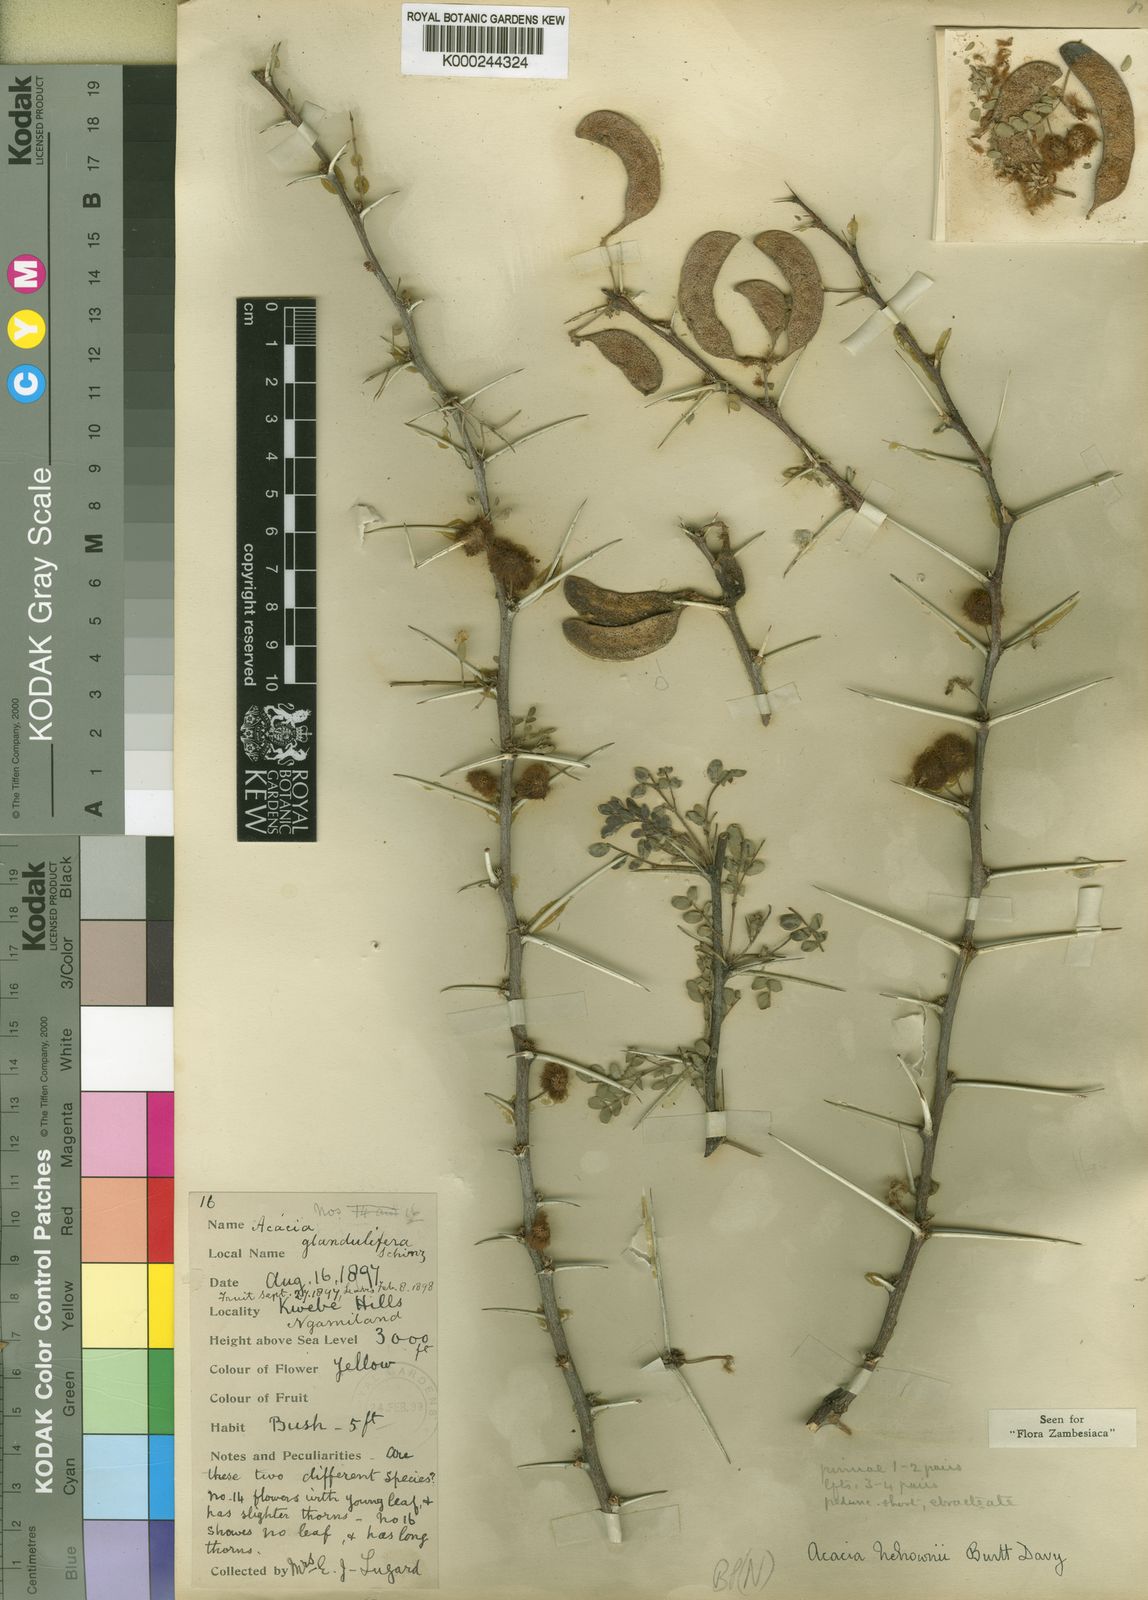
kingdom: Plantae
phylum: Tracheophyta
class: Magnoliopsida
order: Fabales
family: Fabaceae
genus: Vachellia
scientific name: Vachellia nebrownii
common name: Water acacia
